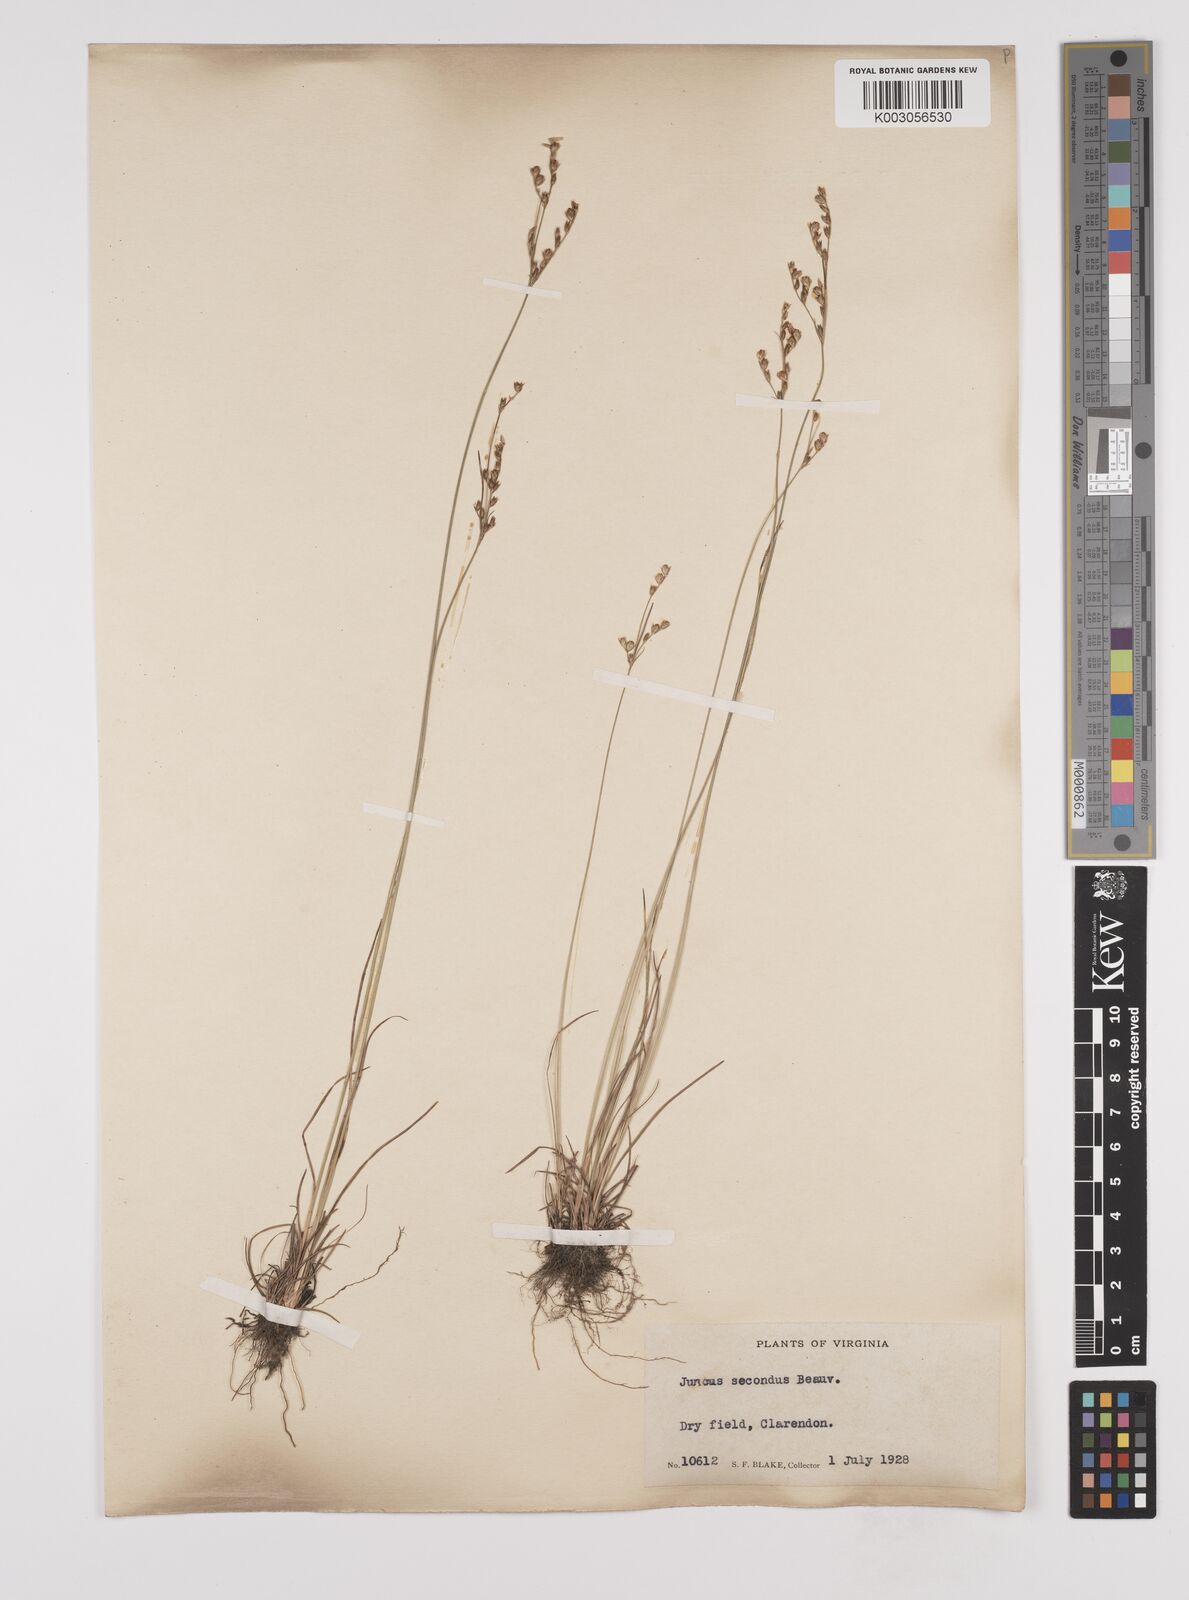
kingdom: Plantae
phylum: Tracheophyta
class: Liliopsida
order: Poales
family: Juncaceae
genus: Juncus
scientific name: Juncus secundus
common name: Lopsided rush
